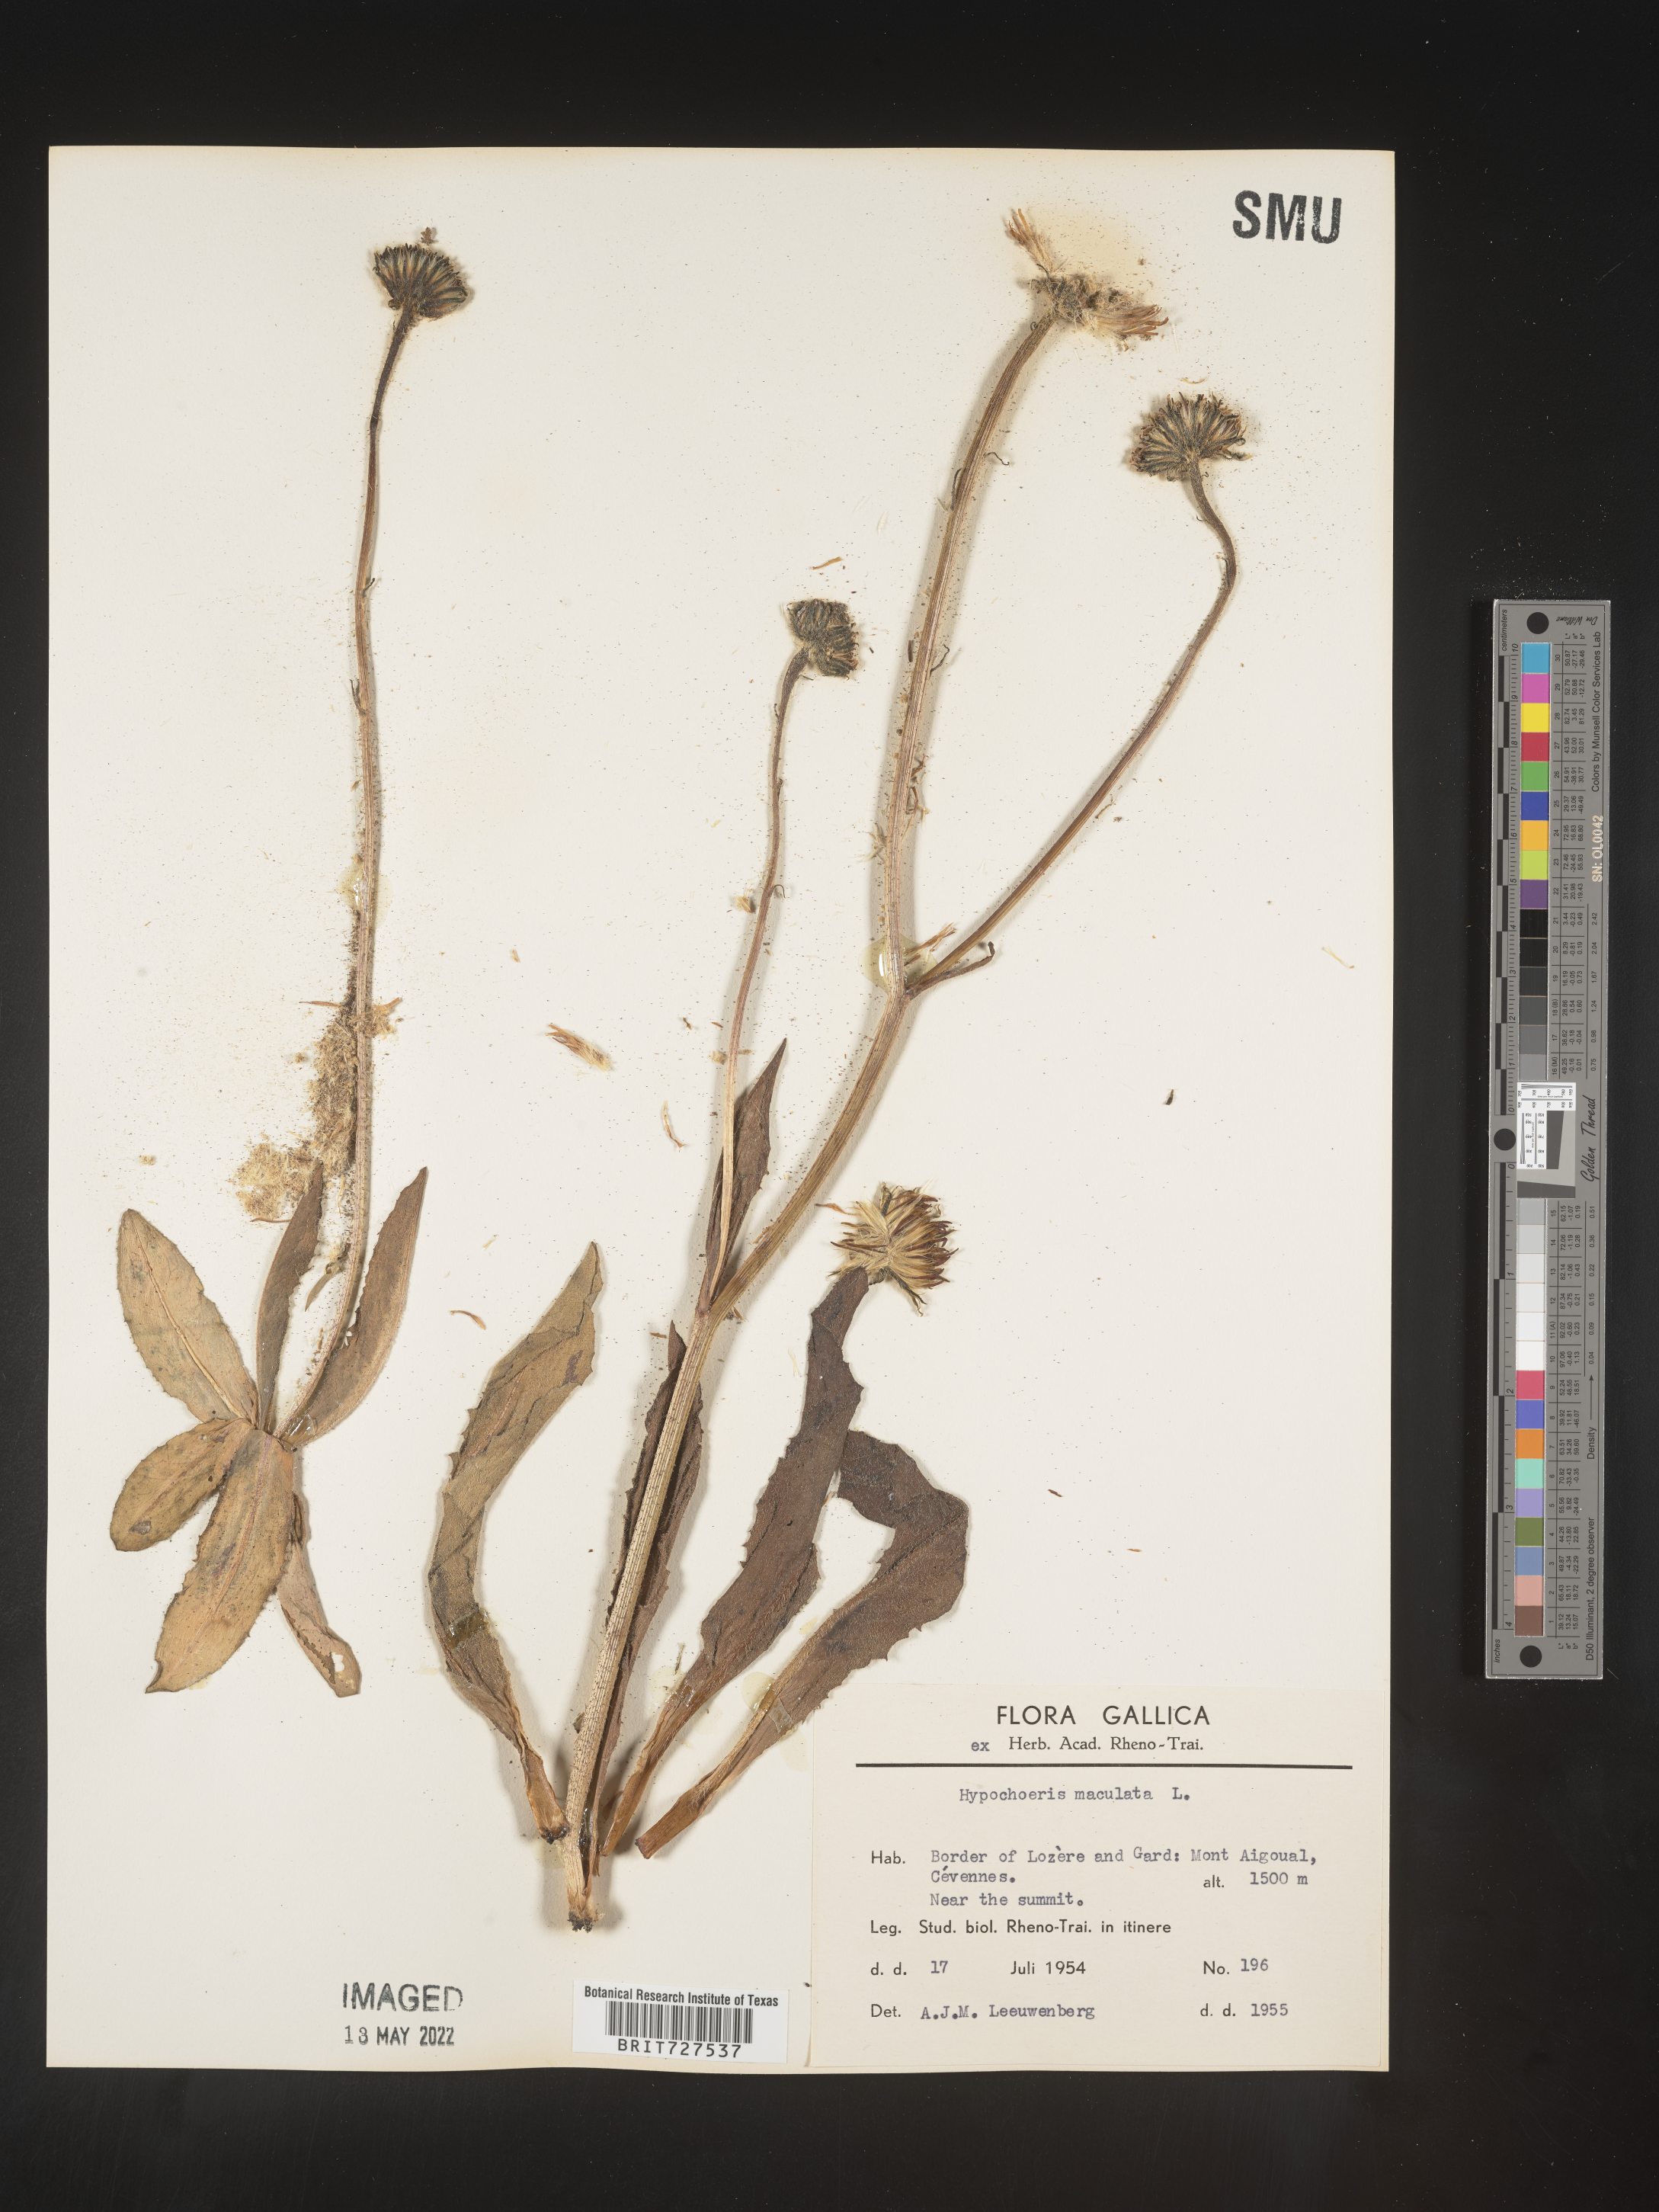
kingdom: Plantae
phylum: Tracheophyta
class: Magnoliopsida
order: Asterales
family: Asteraceae
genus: Hypochaeris
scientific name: Hypochaeris
